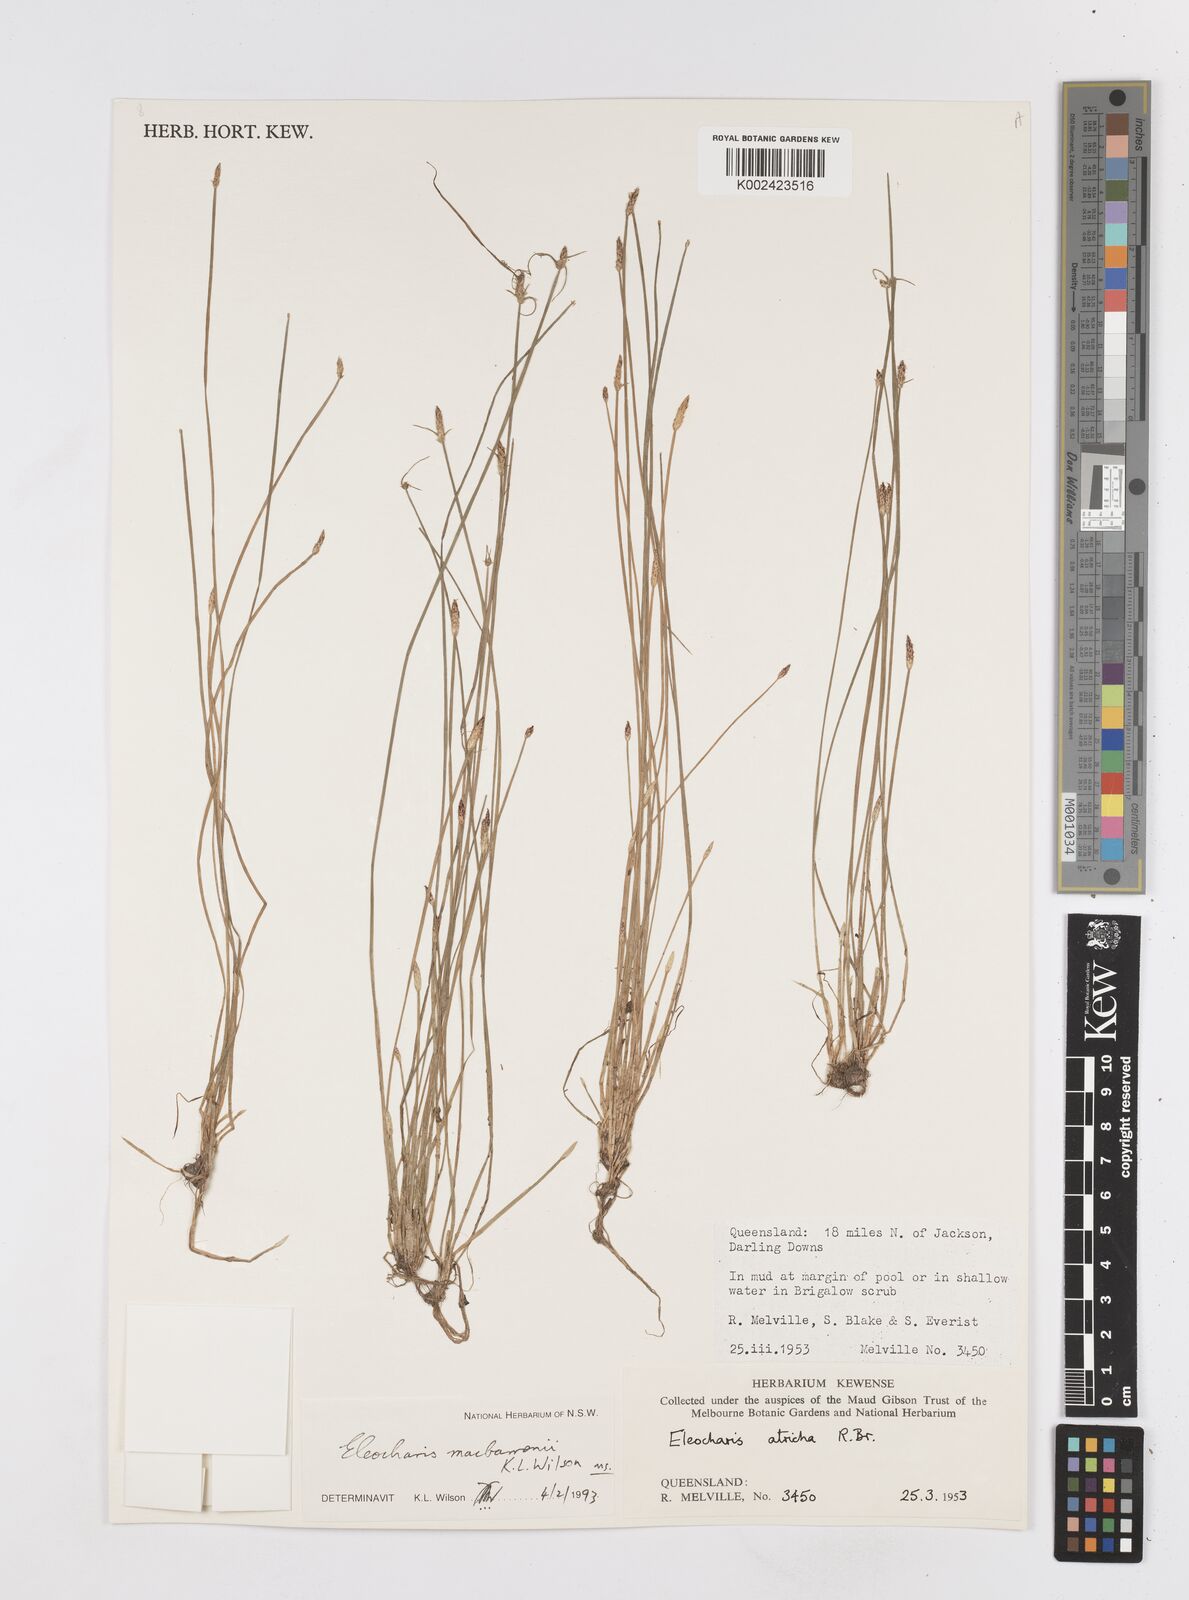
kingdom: Plantae
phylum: Tracheophyta
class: Liliopsida
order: Poales
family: Cyperaceae
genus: Eleocharis
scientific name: Eleocharis
